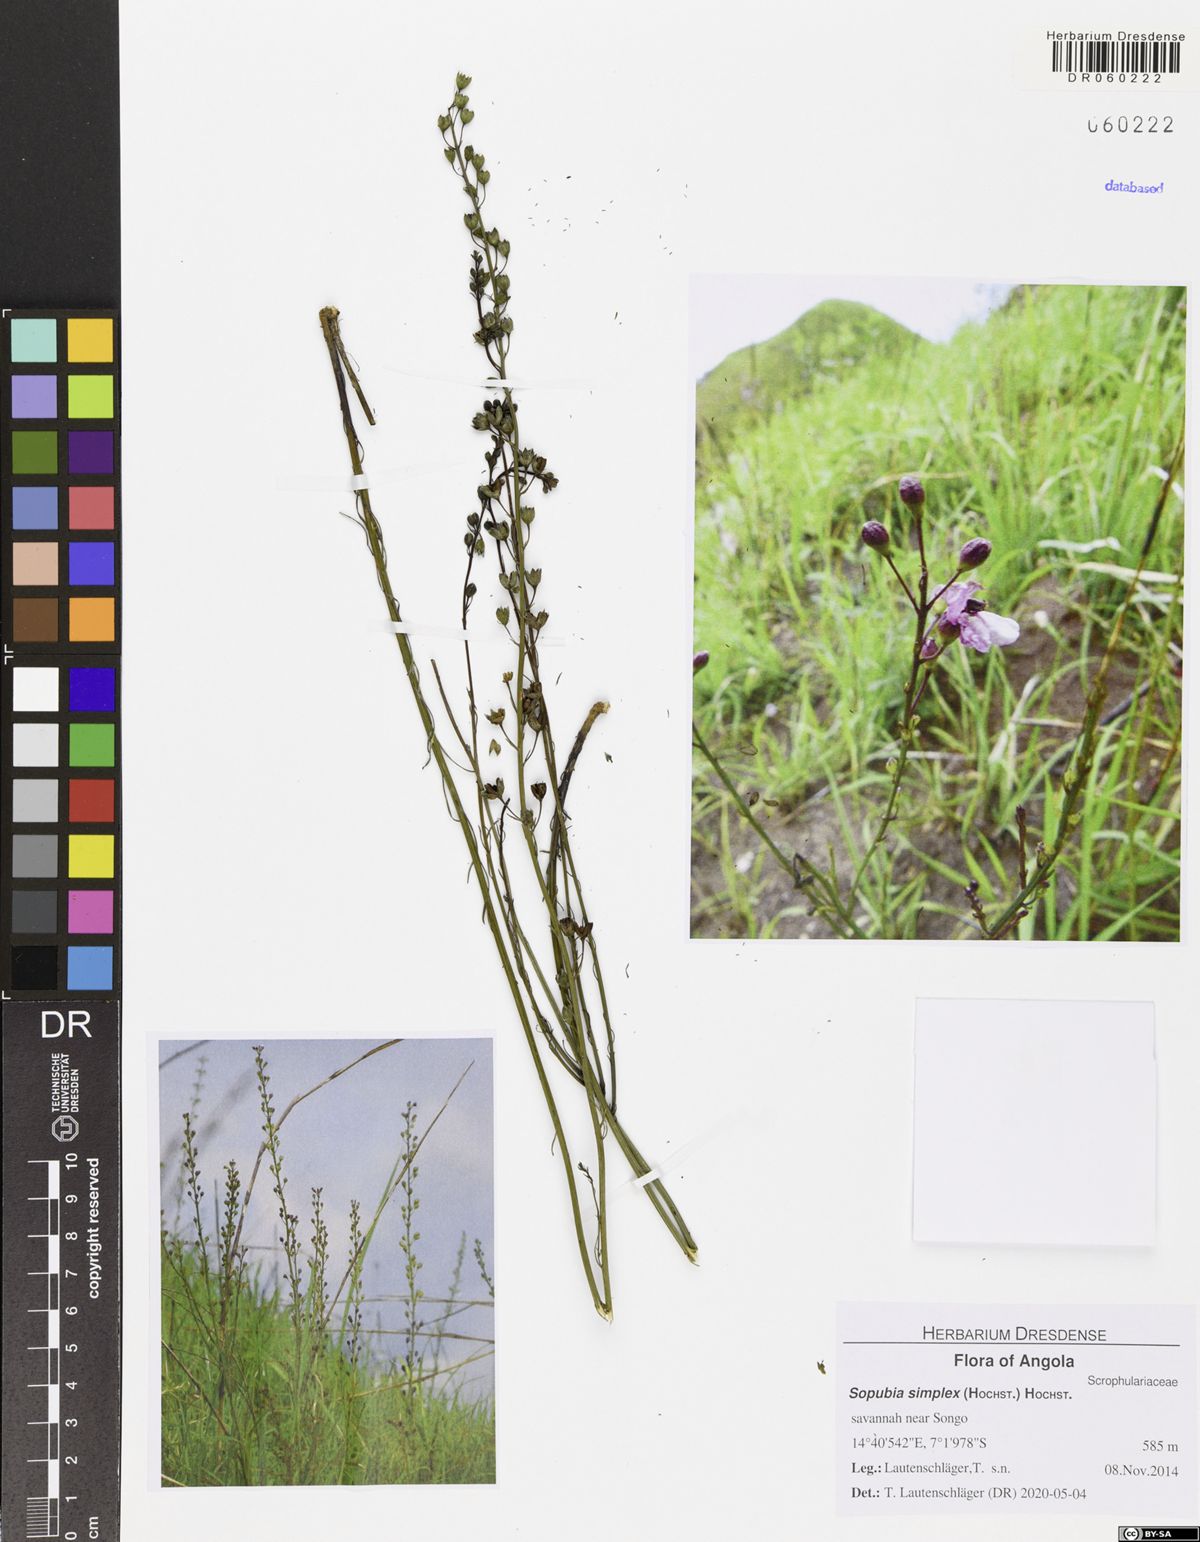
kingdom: Plantae
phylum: Tracheophyta
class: Magnoliopsida
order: Lamiales
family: Orobanchaceae
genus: Sopubia
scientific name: Sopubia simplex
